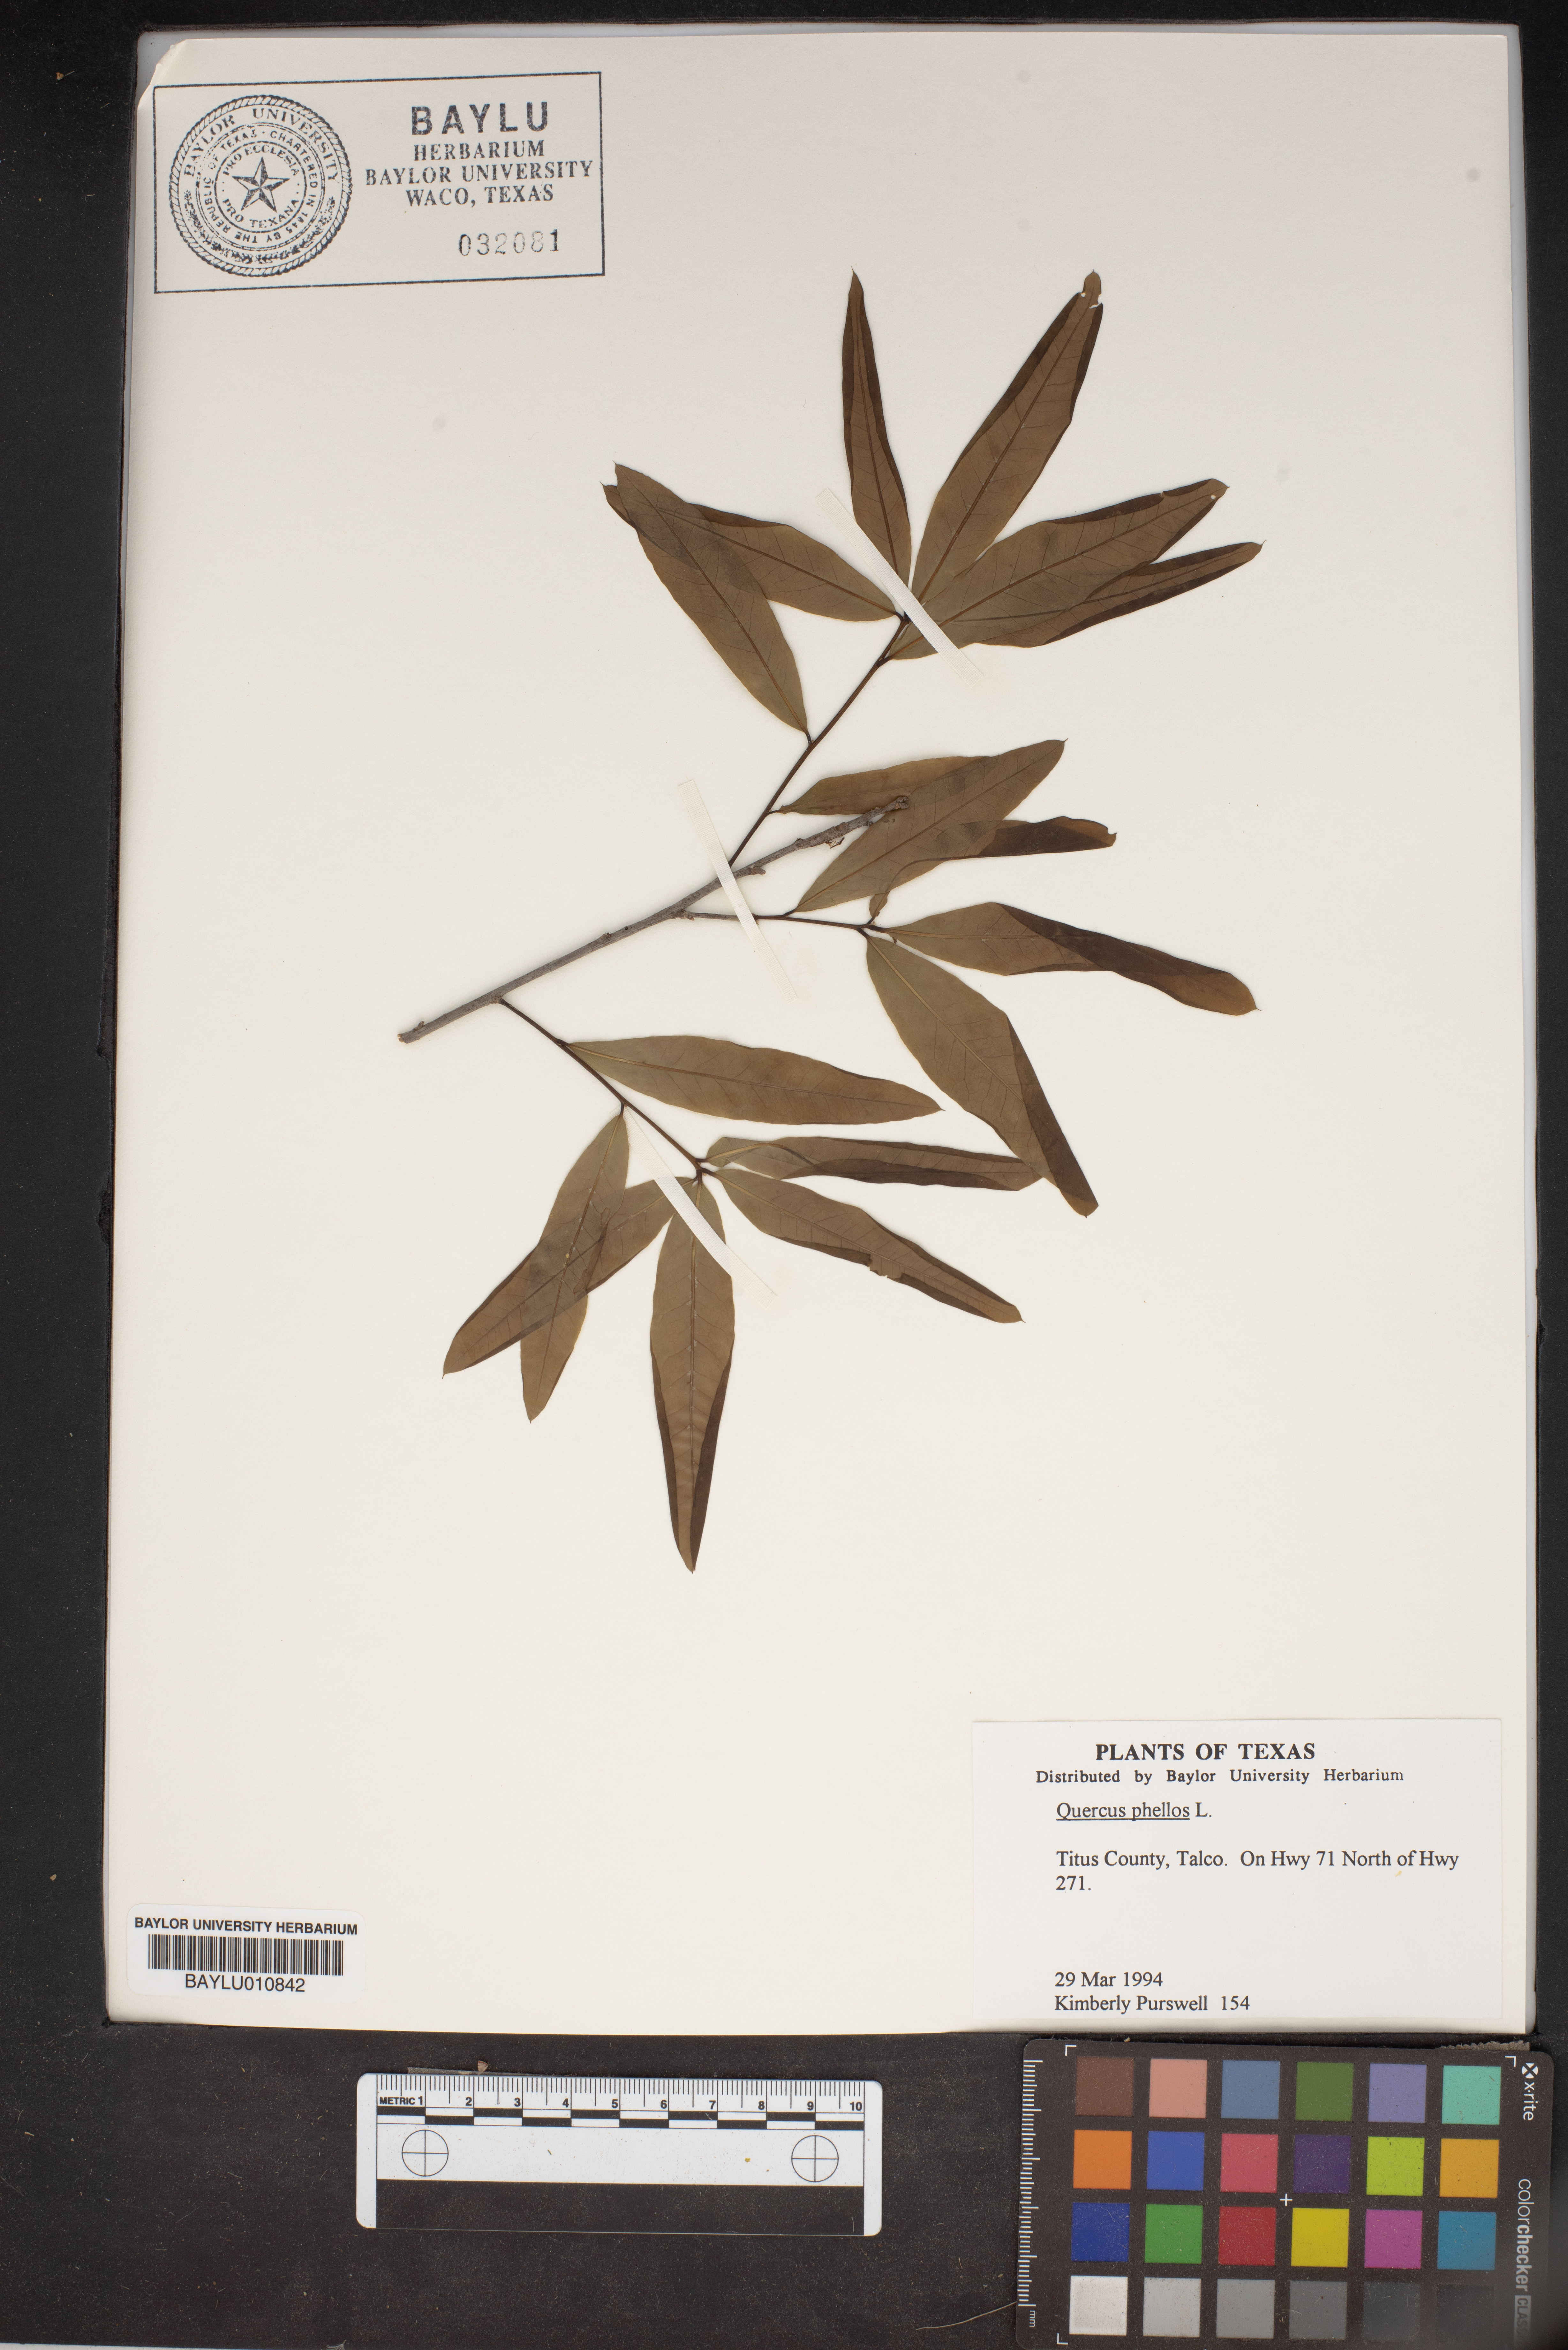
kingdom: Plantae
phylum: Tracheophyta
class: Magnoliopsida
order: Fagales
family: Fagaceae
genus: Quercus
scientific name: Quercus phellos
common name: Willow oak
